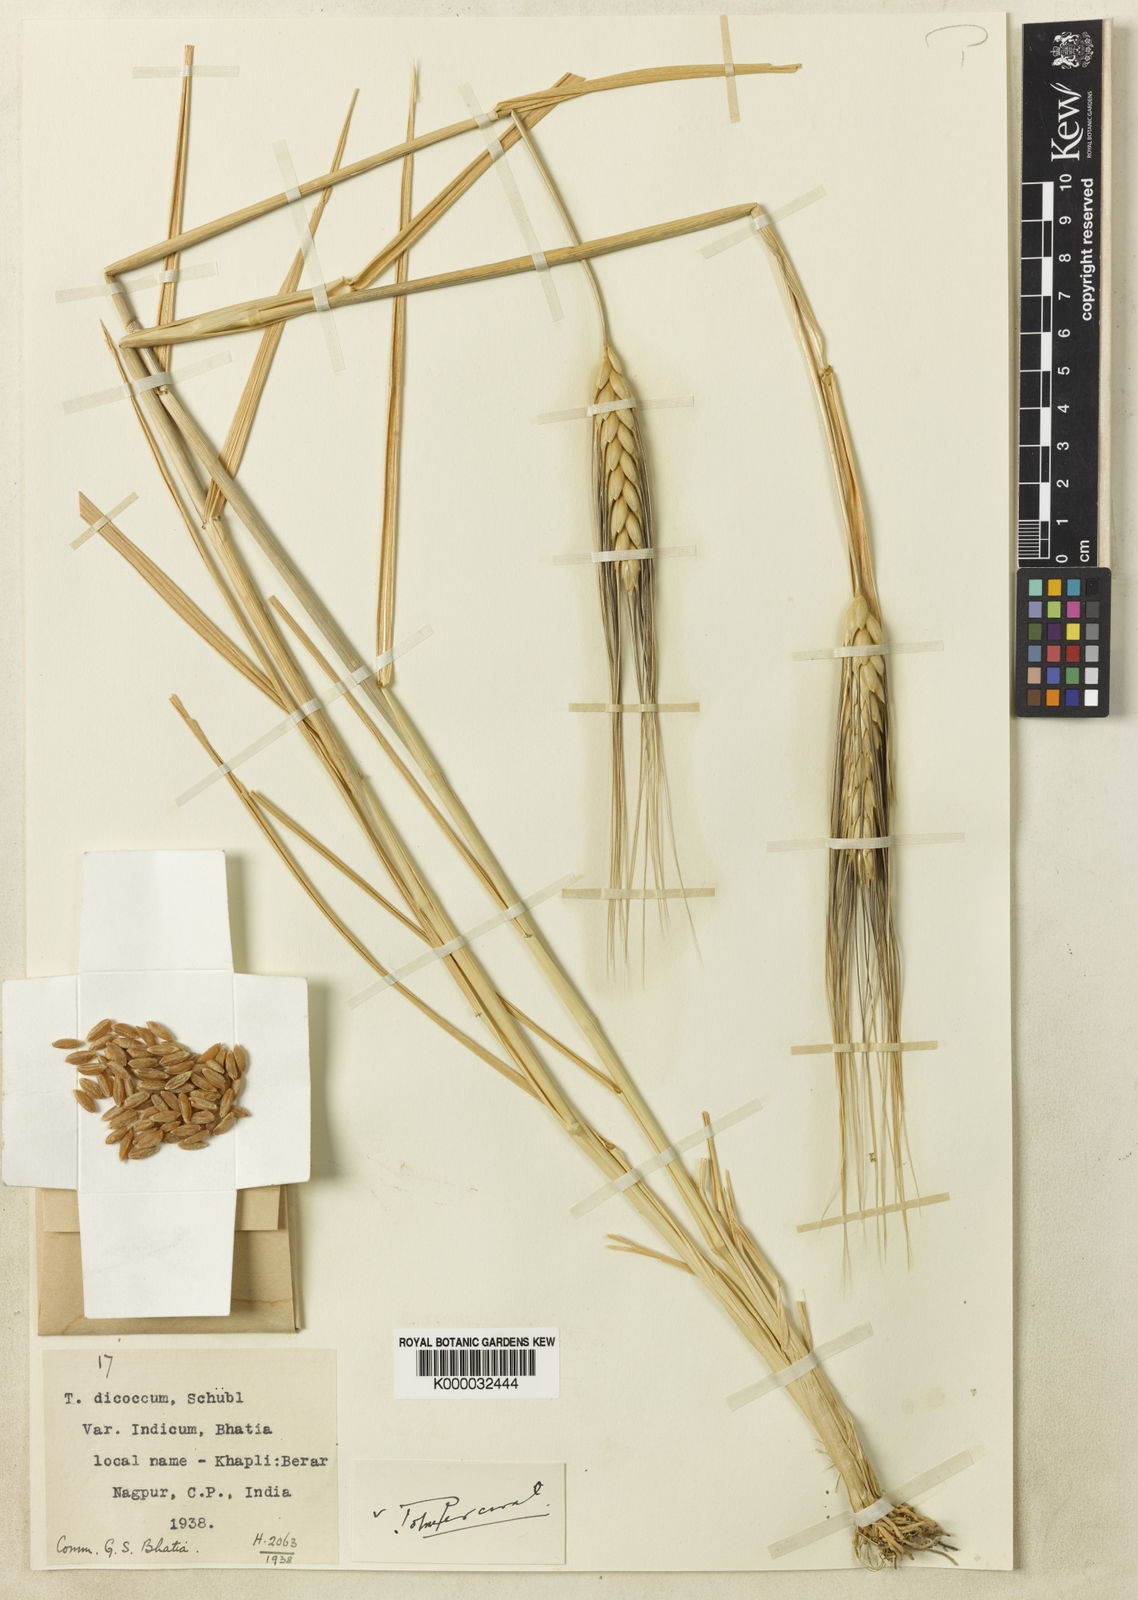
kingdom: Plantae
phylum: Tracheophyta
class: Liliopsida
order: Poales
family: Poaceae
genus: Triticum
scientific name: Triticum
